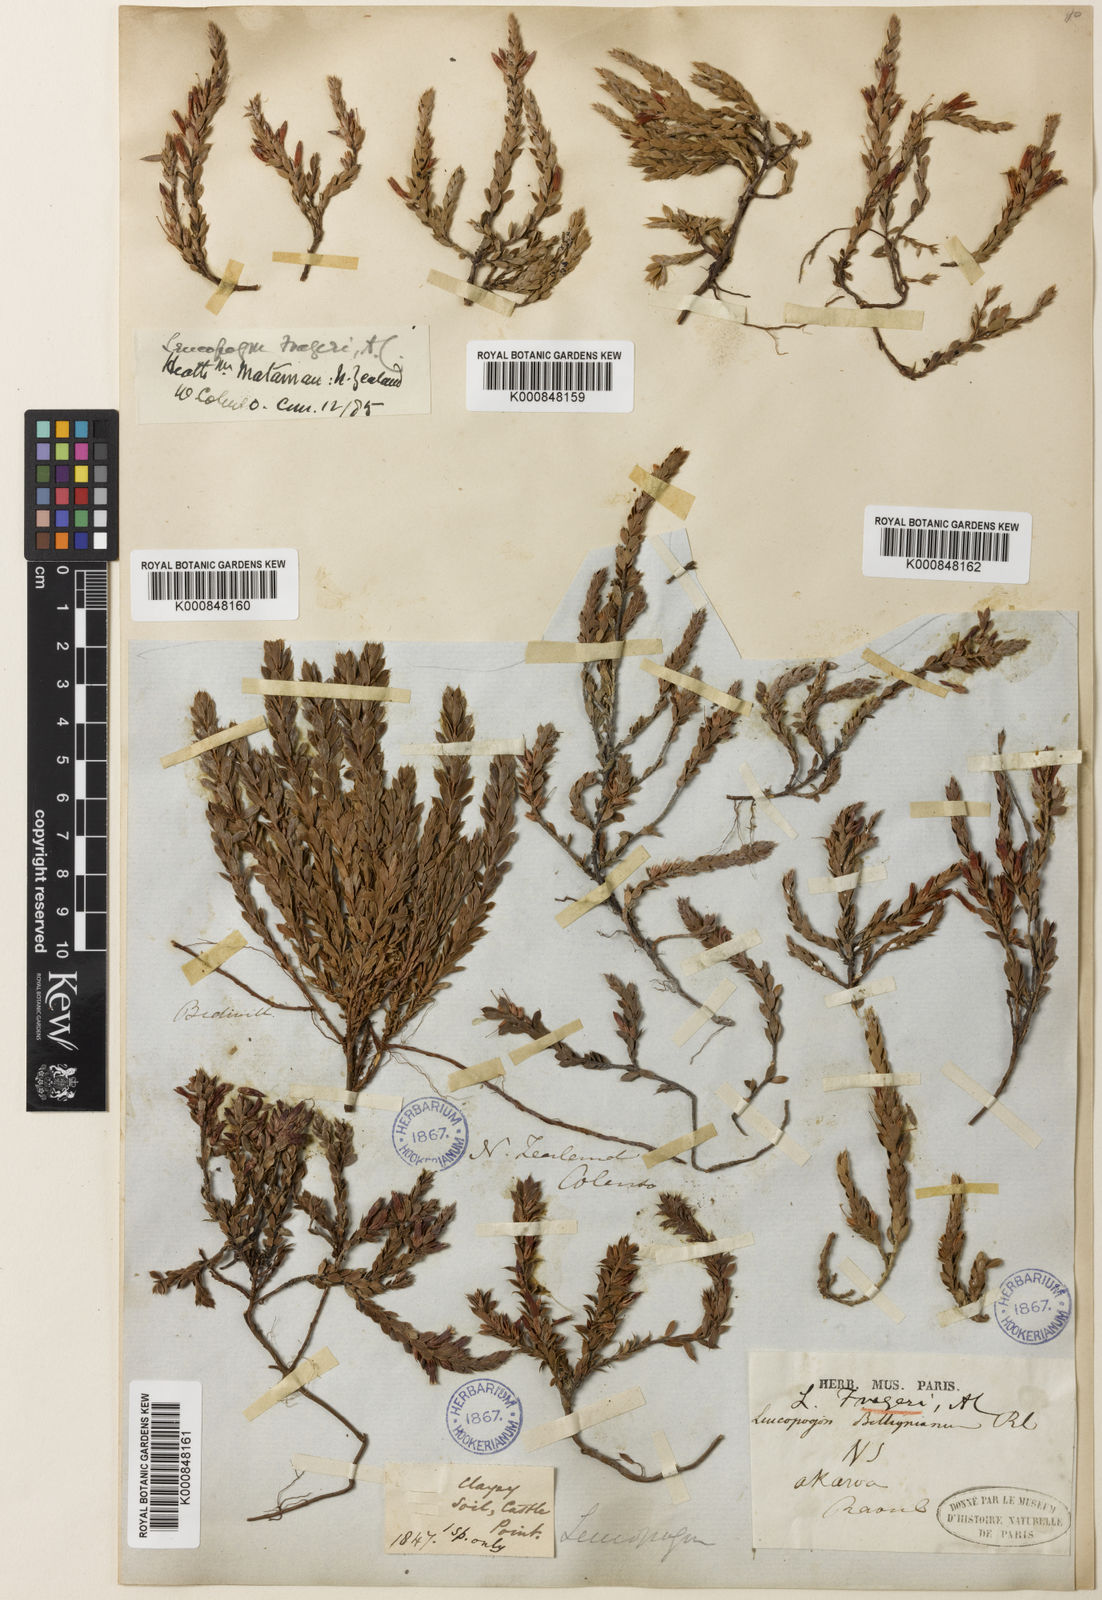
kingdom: Plantae
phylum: Tracheophyta
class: Magnoliopsida
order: Ericales
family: Ericaceae
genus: Styphelia
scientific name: Styphelia nesophila
